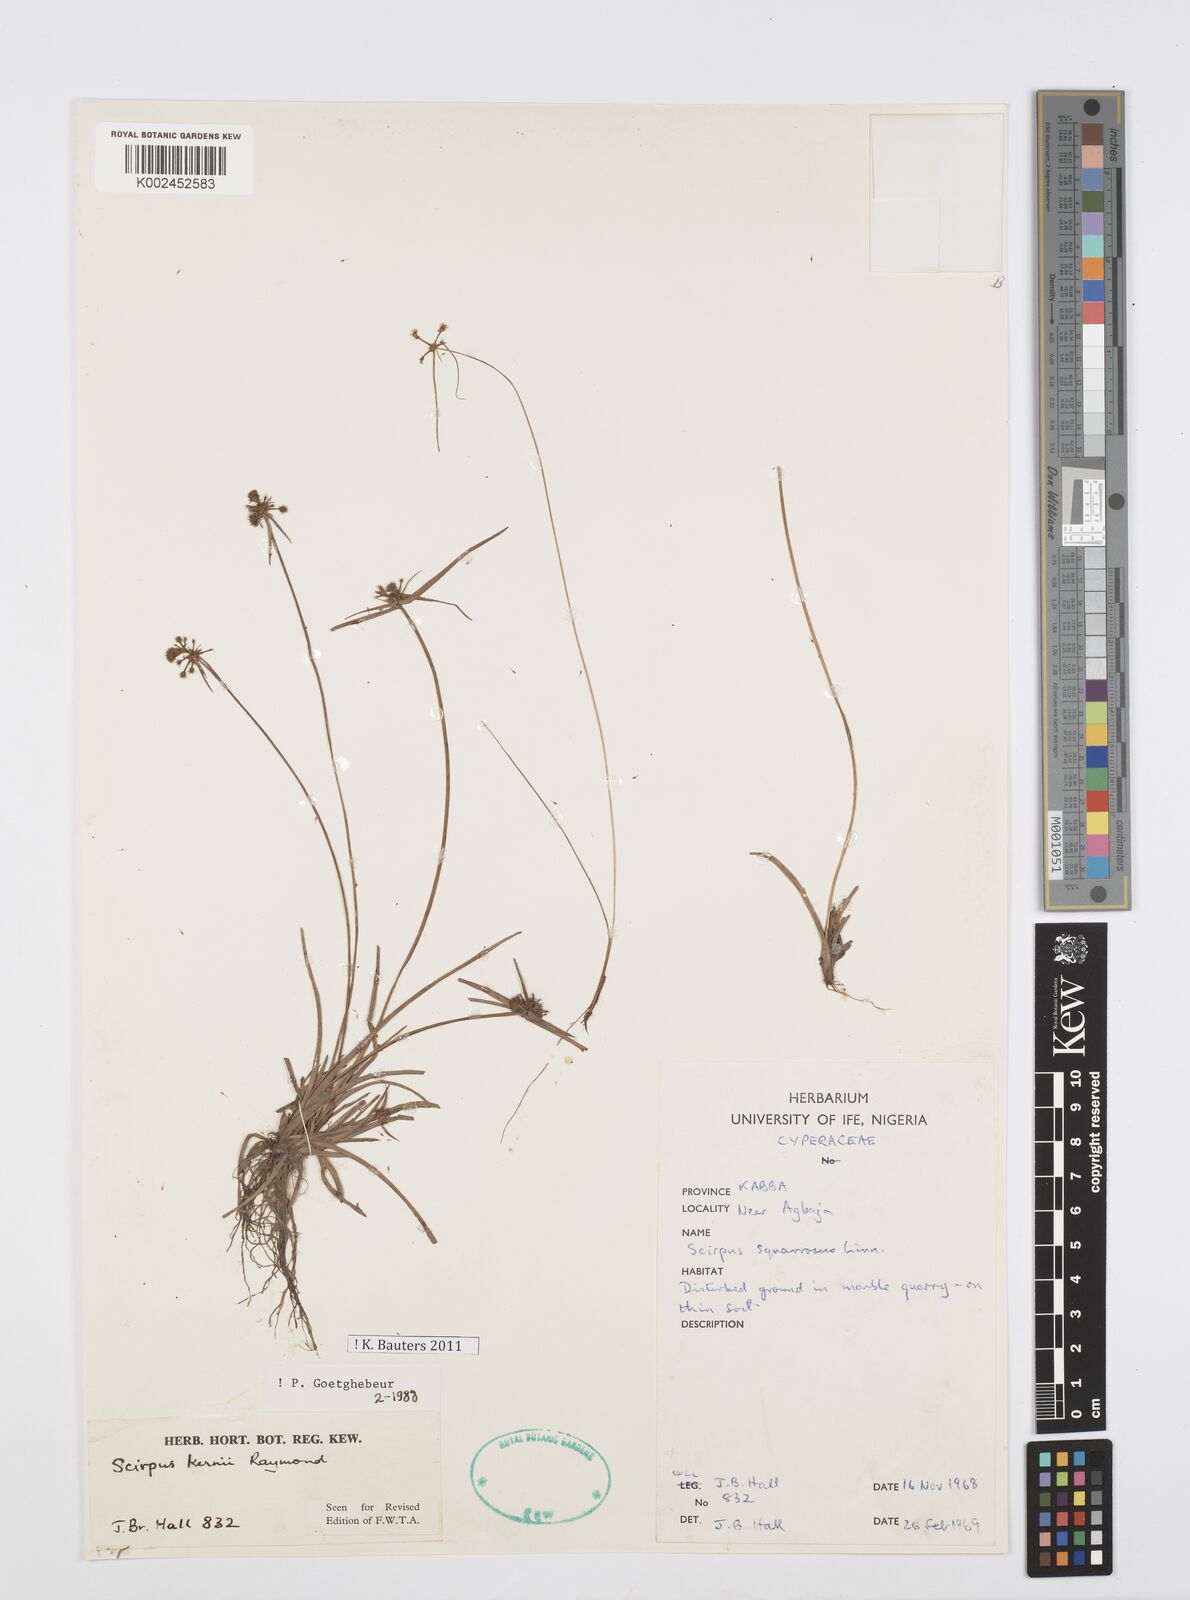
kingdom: Plantae
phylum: Tracheophyta
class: Liliopsida
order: Poales
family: Cyperaceae
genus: Cyperus
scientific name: Cyperus kernii
